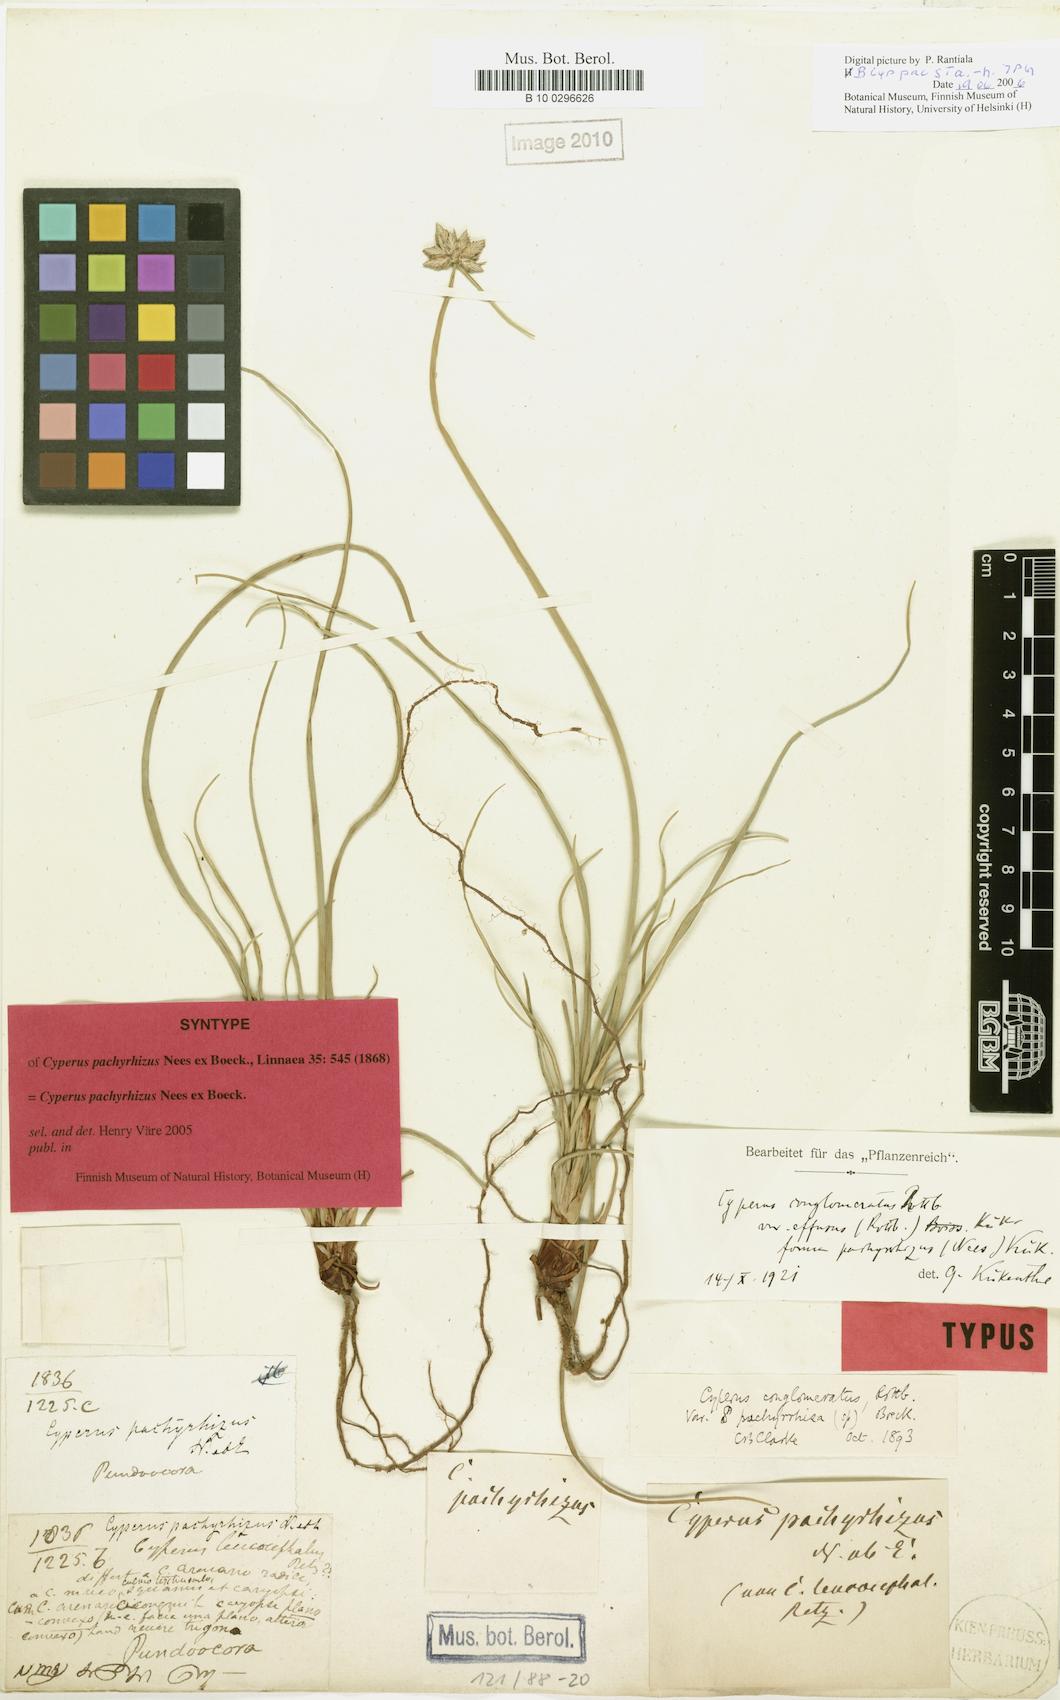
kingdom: Plantae
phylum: Tracheophyta
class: Liliopsida
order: Poales
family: Cyperaceae
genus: Cyperus
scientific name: Cyperus pachyrhizus
